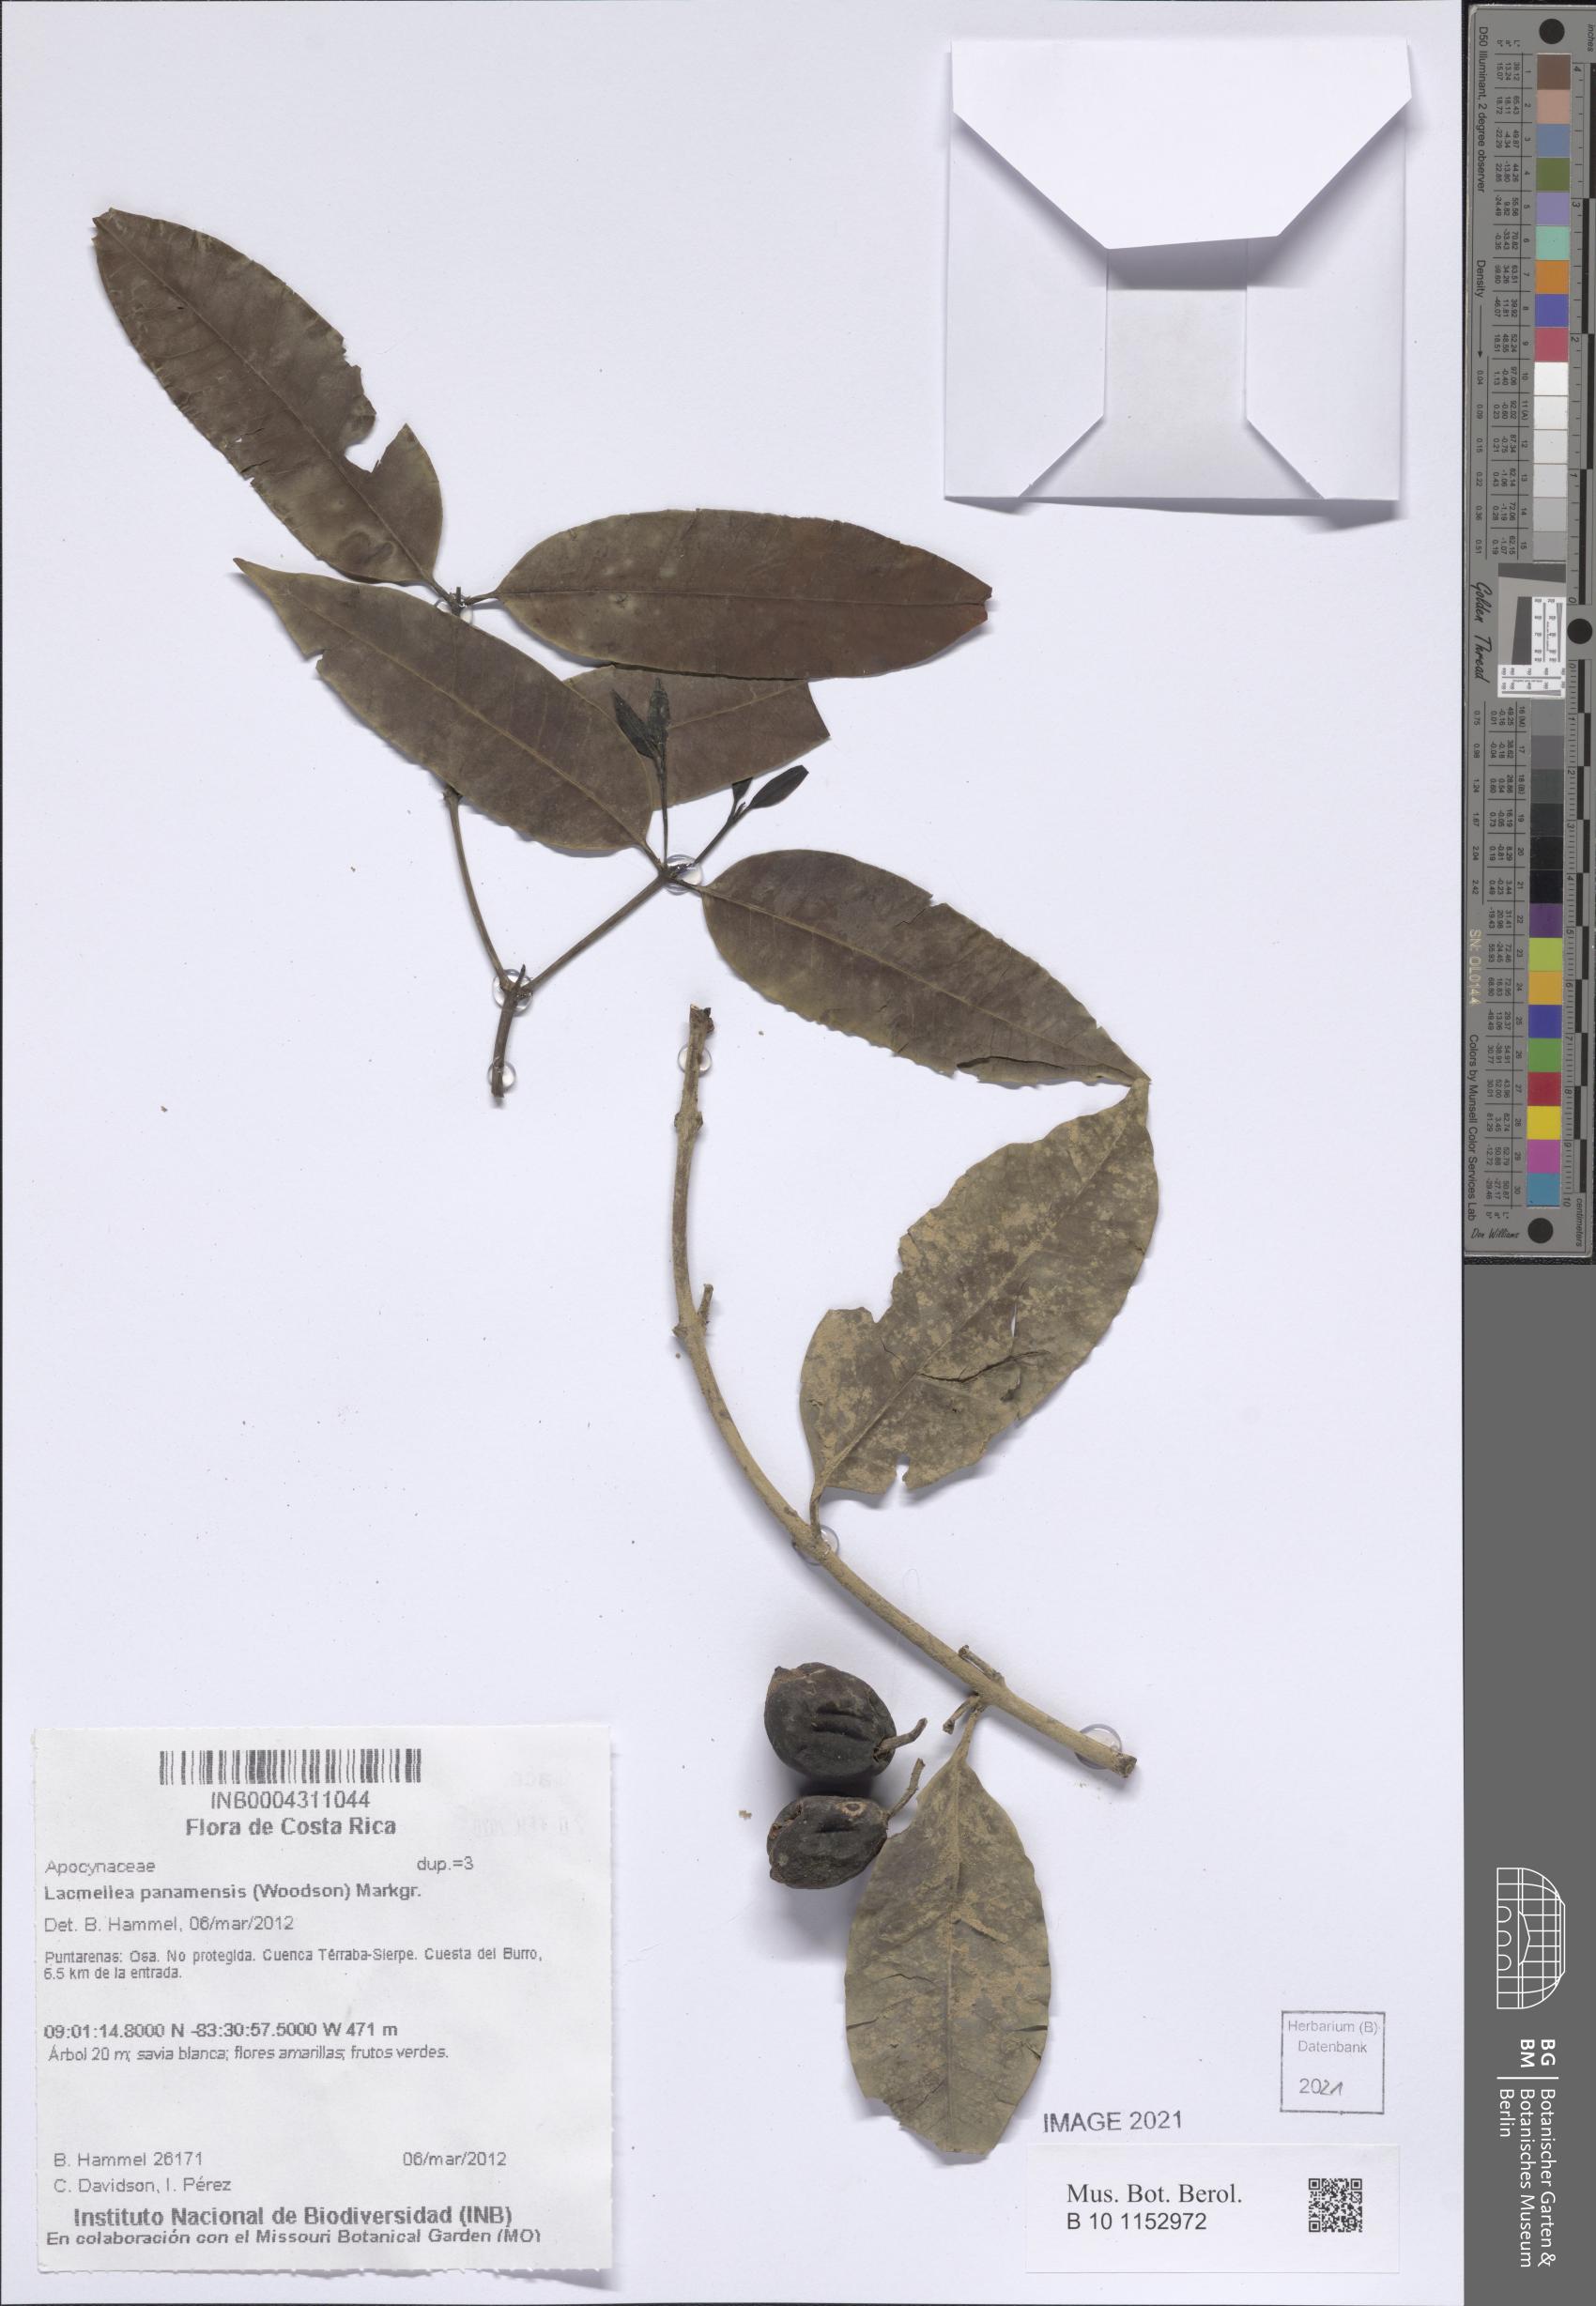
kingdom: Plantae
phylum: Tracheophyta
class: Magnoliopsida
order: Gentianales
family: Apocynaceae
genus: Lacmellea
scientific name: Lacmellea panamensis
